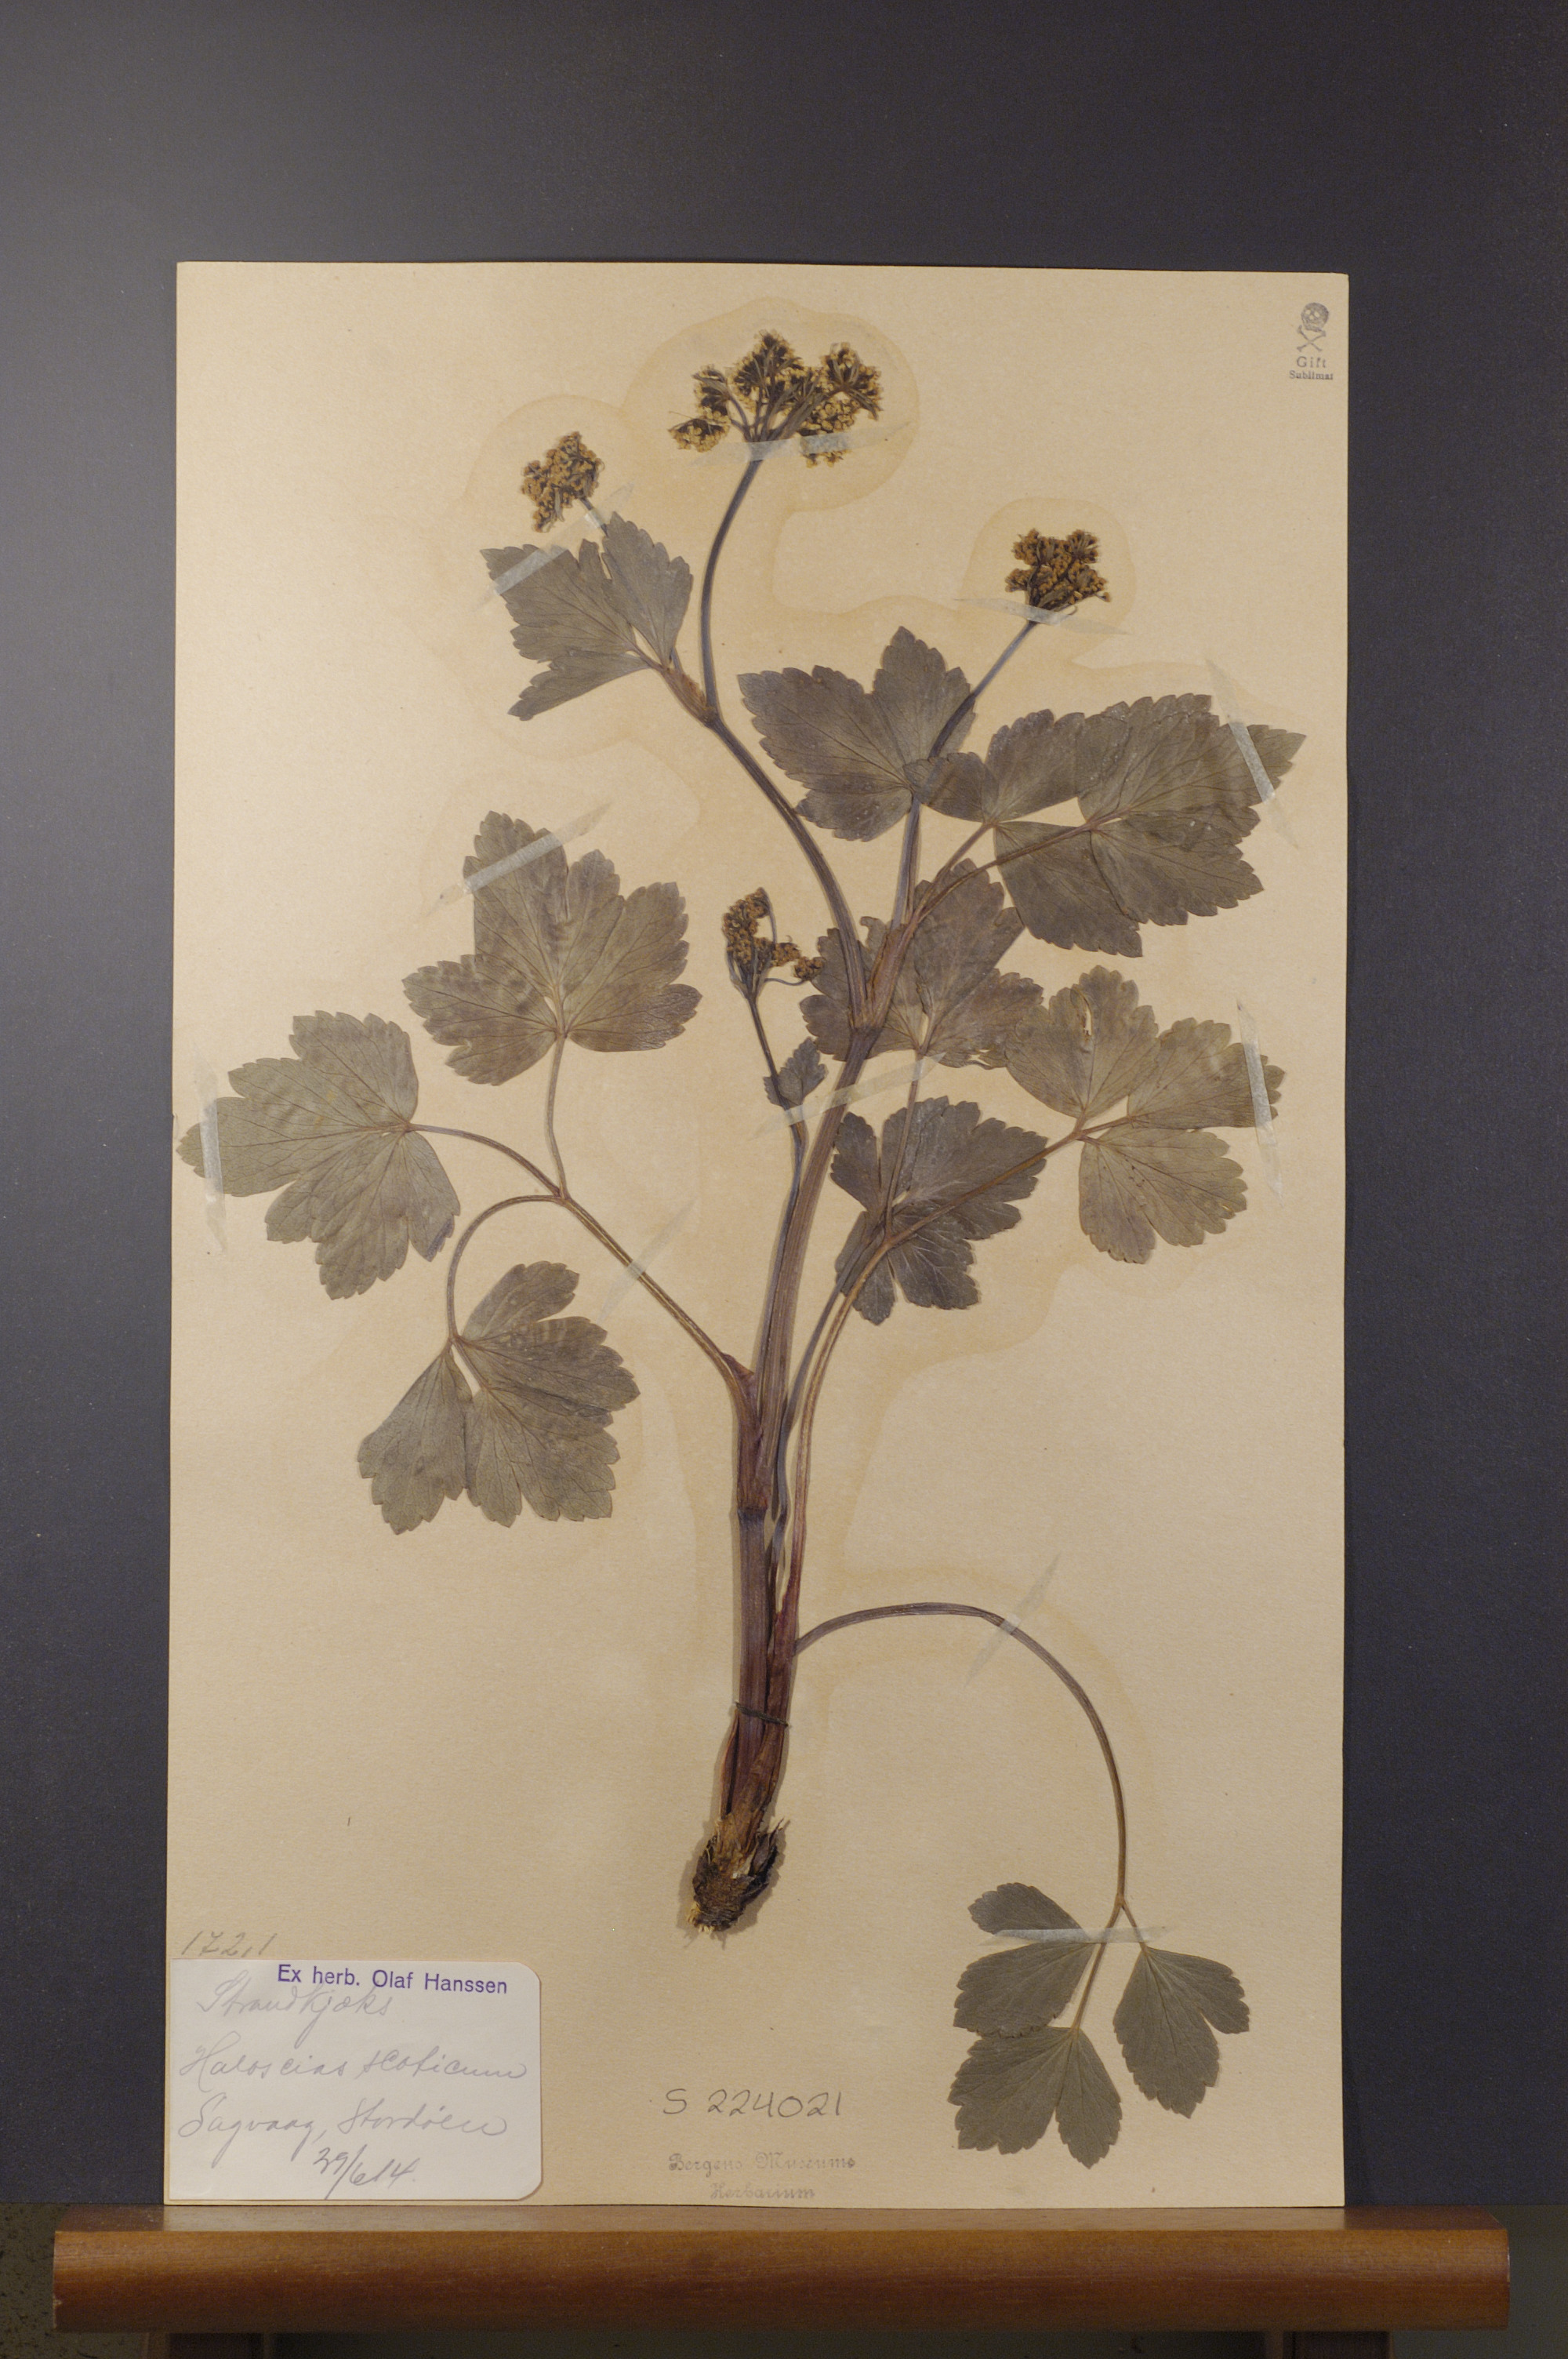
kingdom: Plantae
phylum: Tracheophyta
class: Magnoliopsida
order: Apiales
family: Apiaceae
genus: Ligusticum
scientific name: Ligusticum scothicum
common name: Beach lovage
